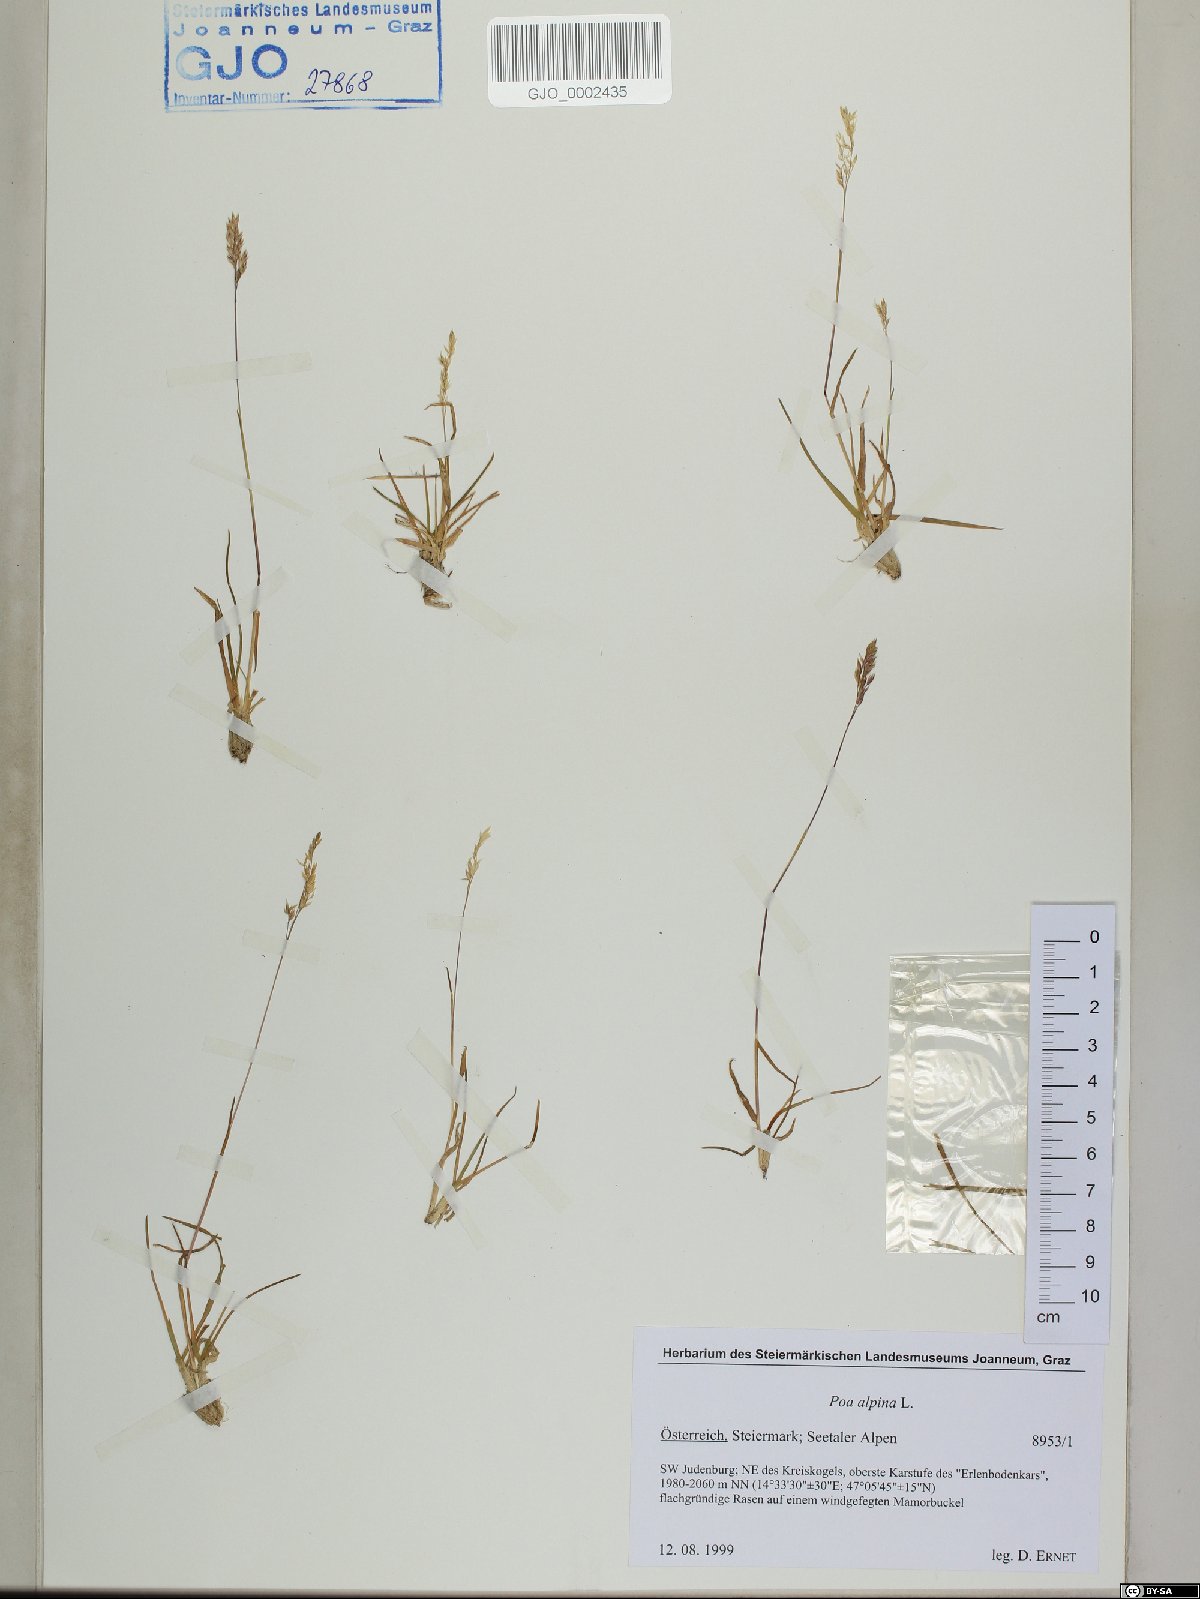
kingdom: Plantae
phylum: Tracheophyta
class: Liliopsida
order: Poales
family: Poaceae
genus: Poa
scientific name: Poa alpina
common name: Alpine bluegrass
